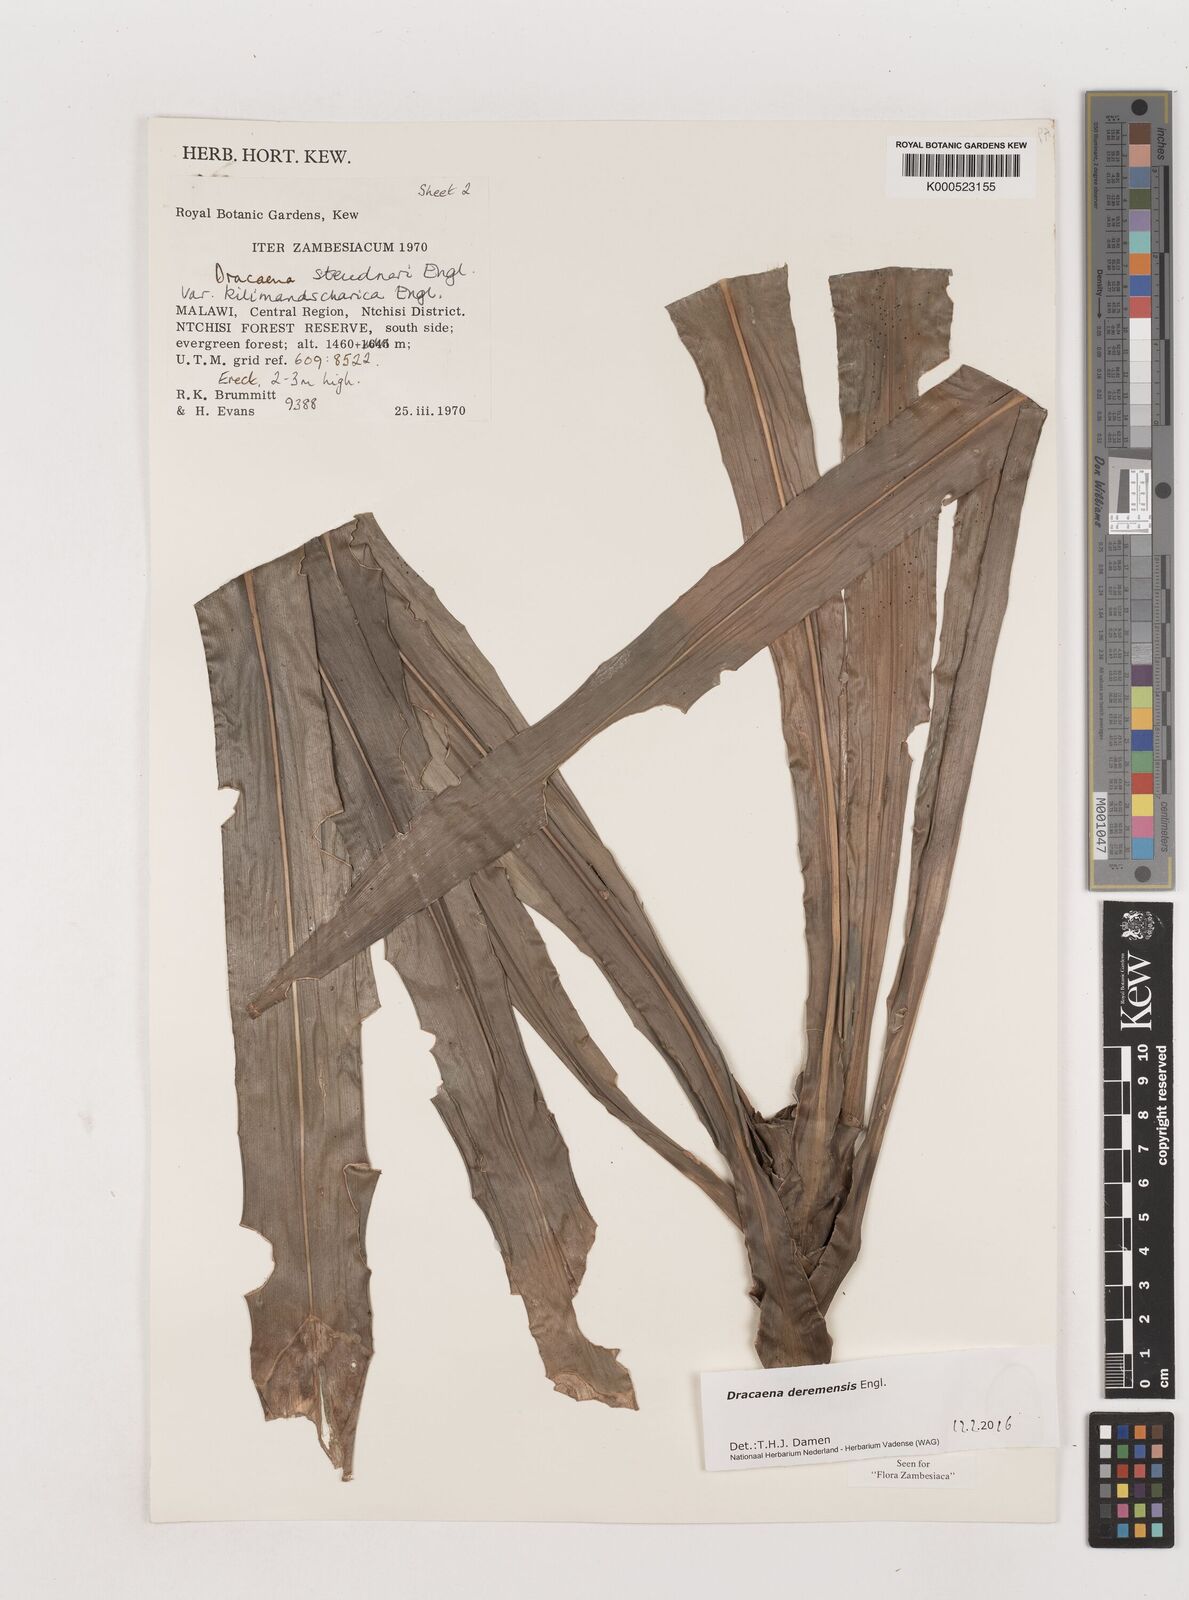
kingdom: Plantae
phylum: Tracheophyta
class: Liliopsida
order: Asparagales
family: Asparagaceae
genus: Dracaena
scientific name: Dracaena fragrans
